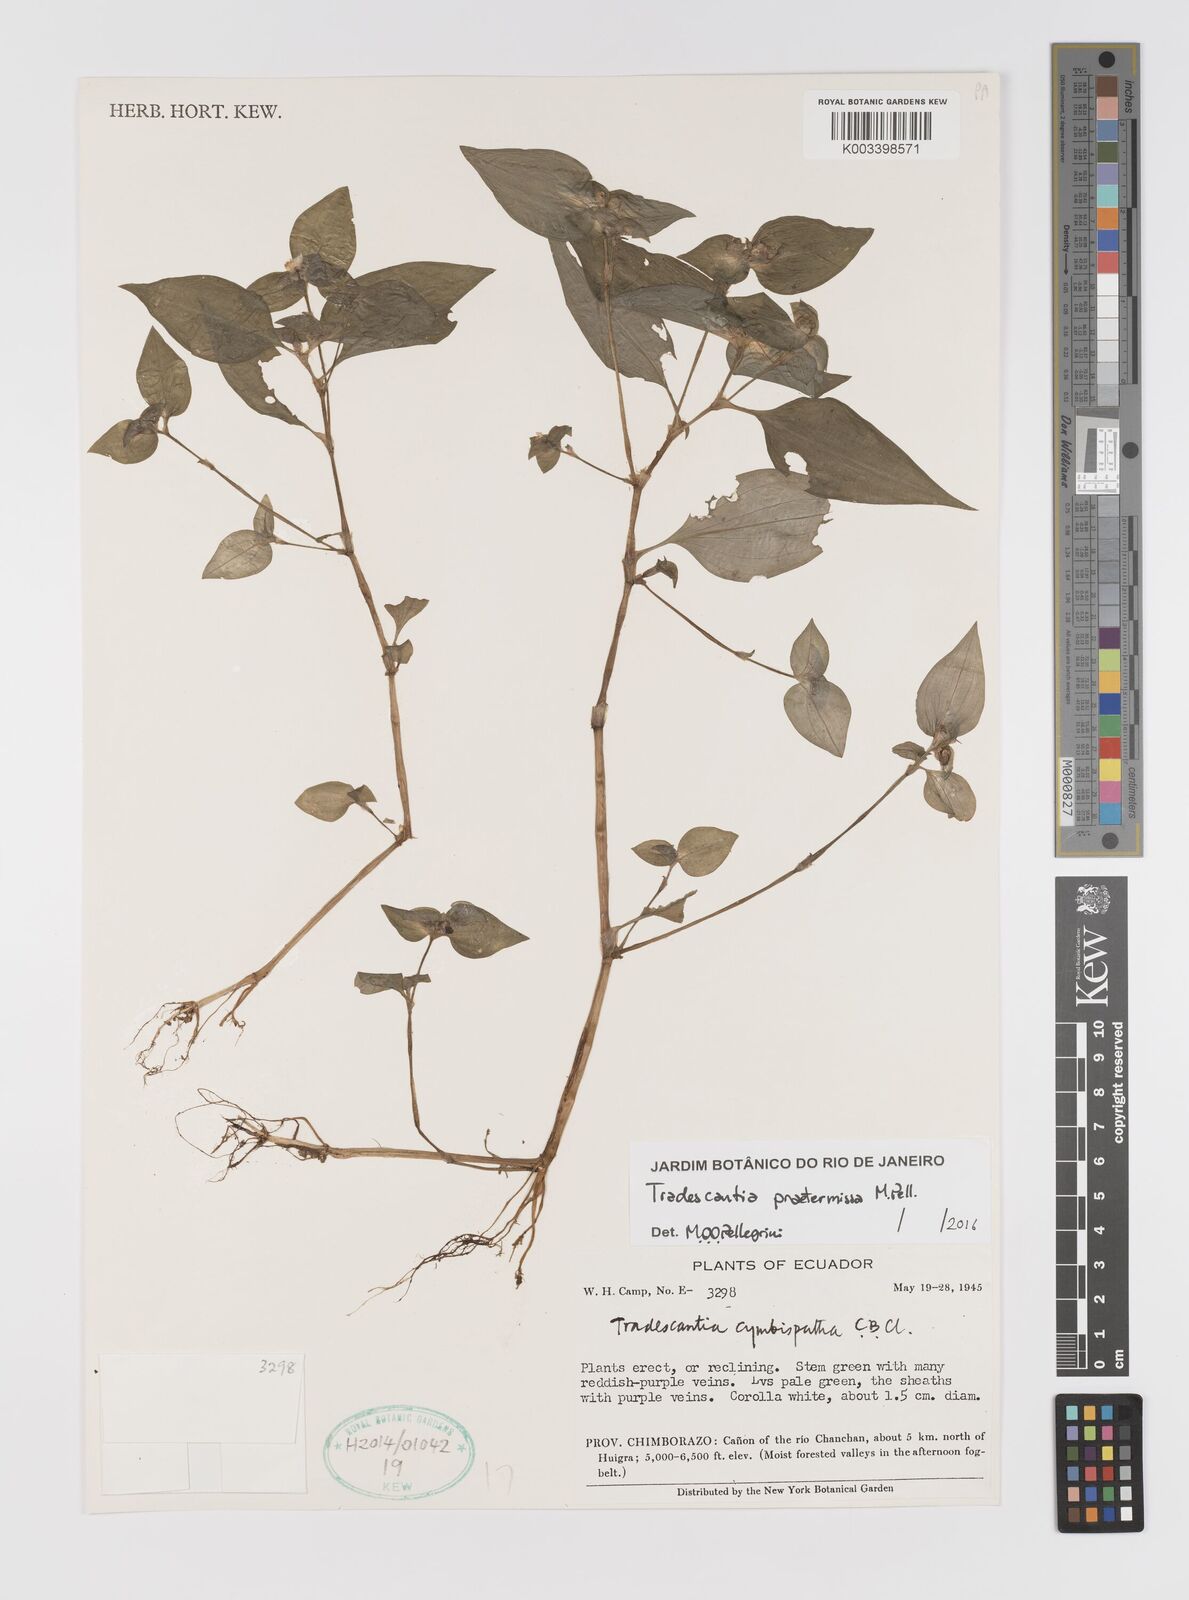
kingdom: Plantae
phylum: Tracheophyta
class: Liliopsida
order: Commelinales
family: Commelinaceae
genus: Tradescantia
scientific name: Tradescantia praetermissa
